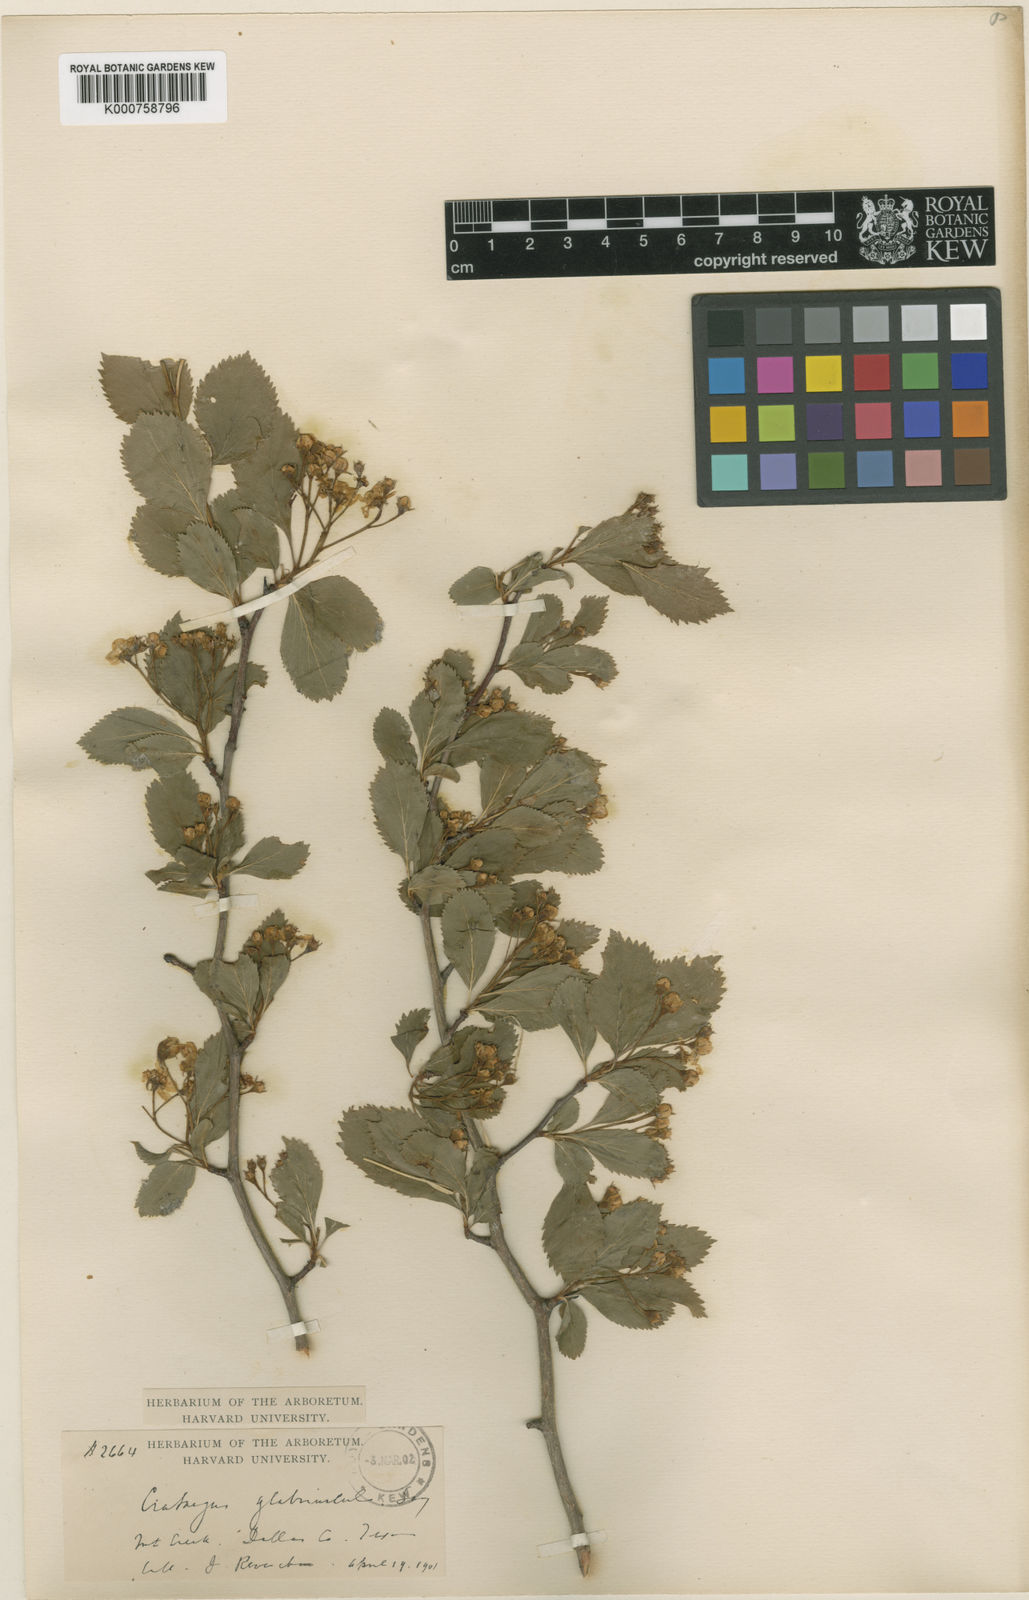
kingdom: Plantae
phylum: Tracheophyta
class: Magnoliopsida
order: Rosales
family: Rosaceae
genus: Crataegus
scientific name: Crataegus viridis
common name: Southernthorn
